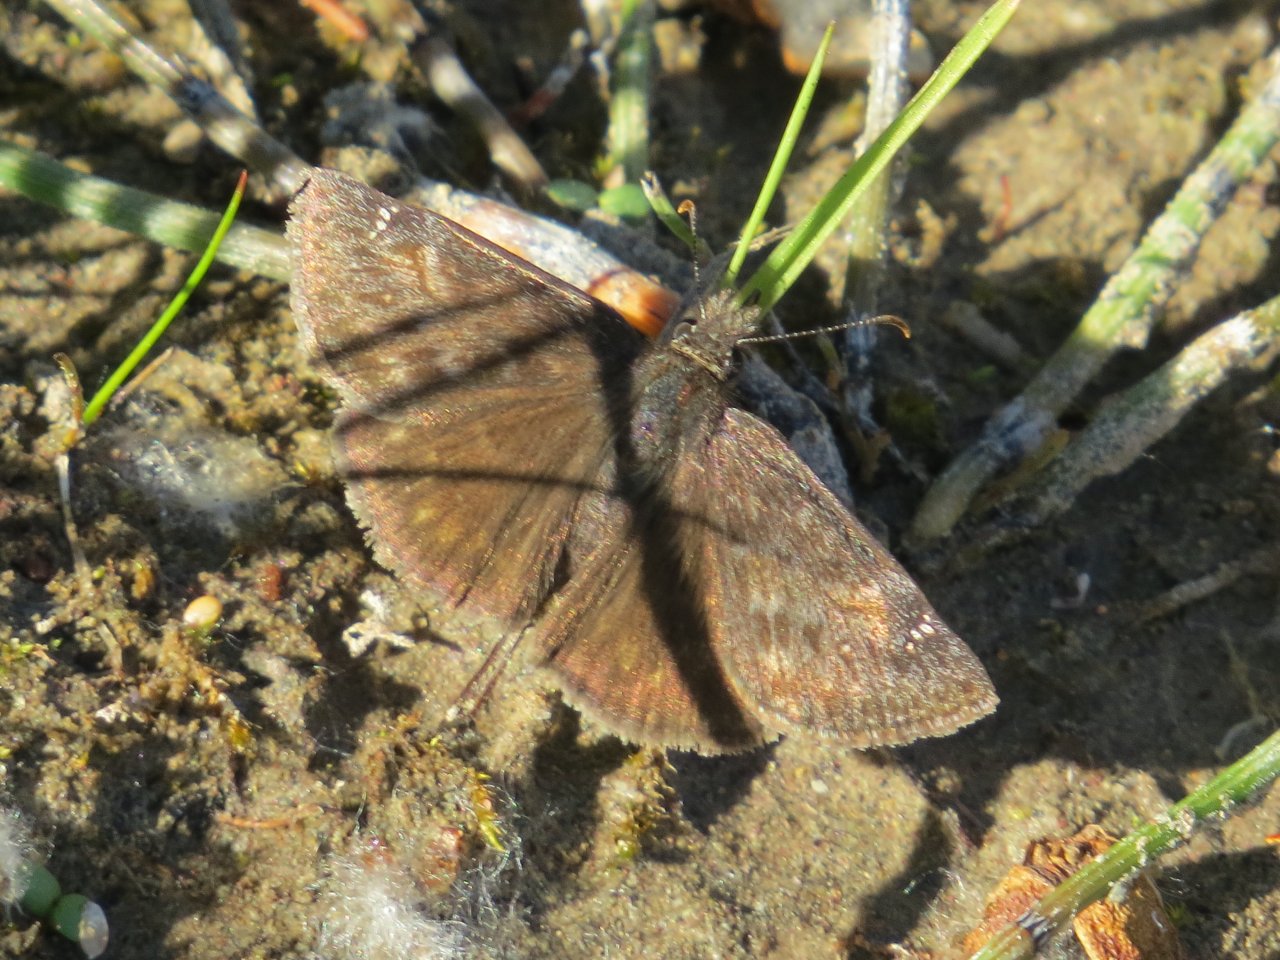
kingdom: Animalia
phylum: Arthropoda
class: Insecta
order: Lepidoptera
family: Hesperiidae
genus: Gesta
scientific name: Gesta
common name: Persius Duskywing
